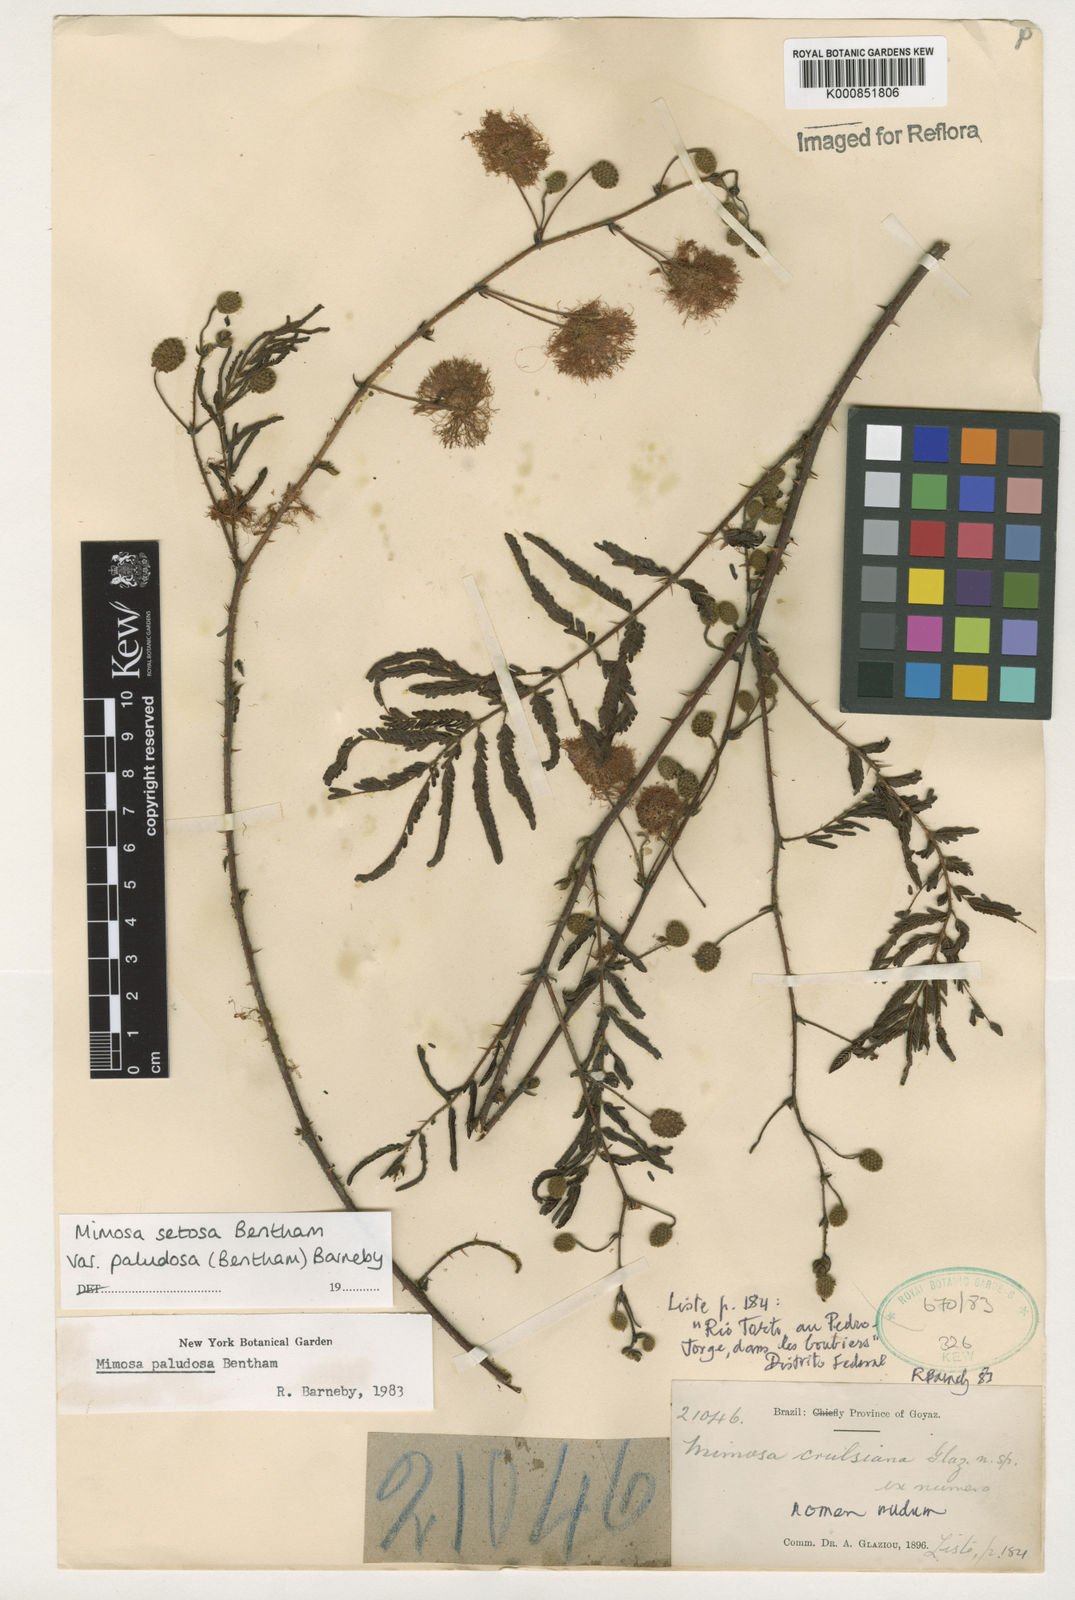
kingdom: Plantae
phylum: Tracheophyta
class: Magnoliopsida
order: Fabales
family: Fabaceae
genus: Mimosa
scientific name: Mimosa melanocarpa
